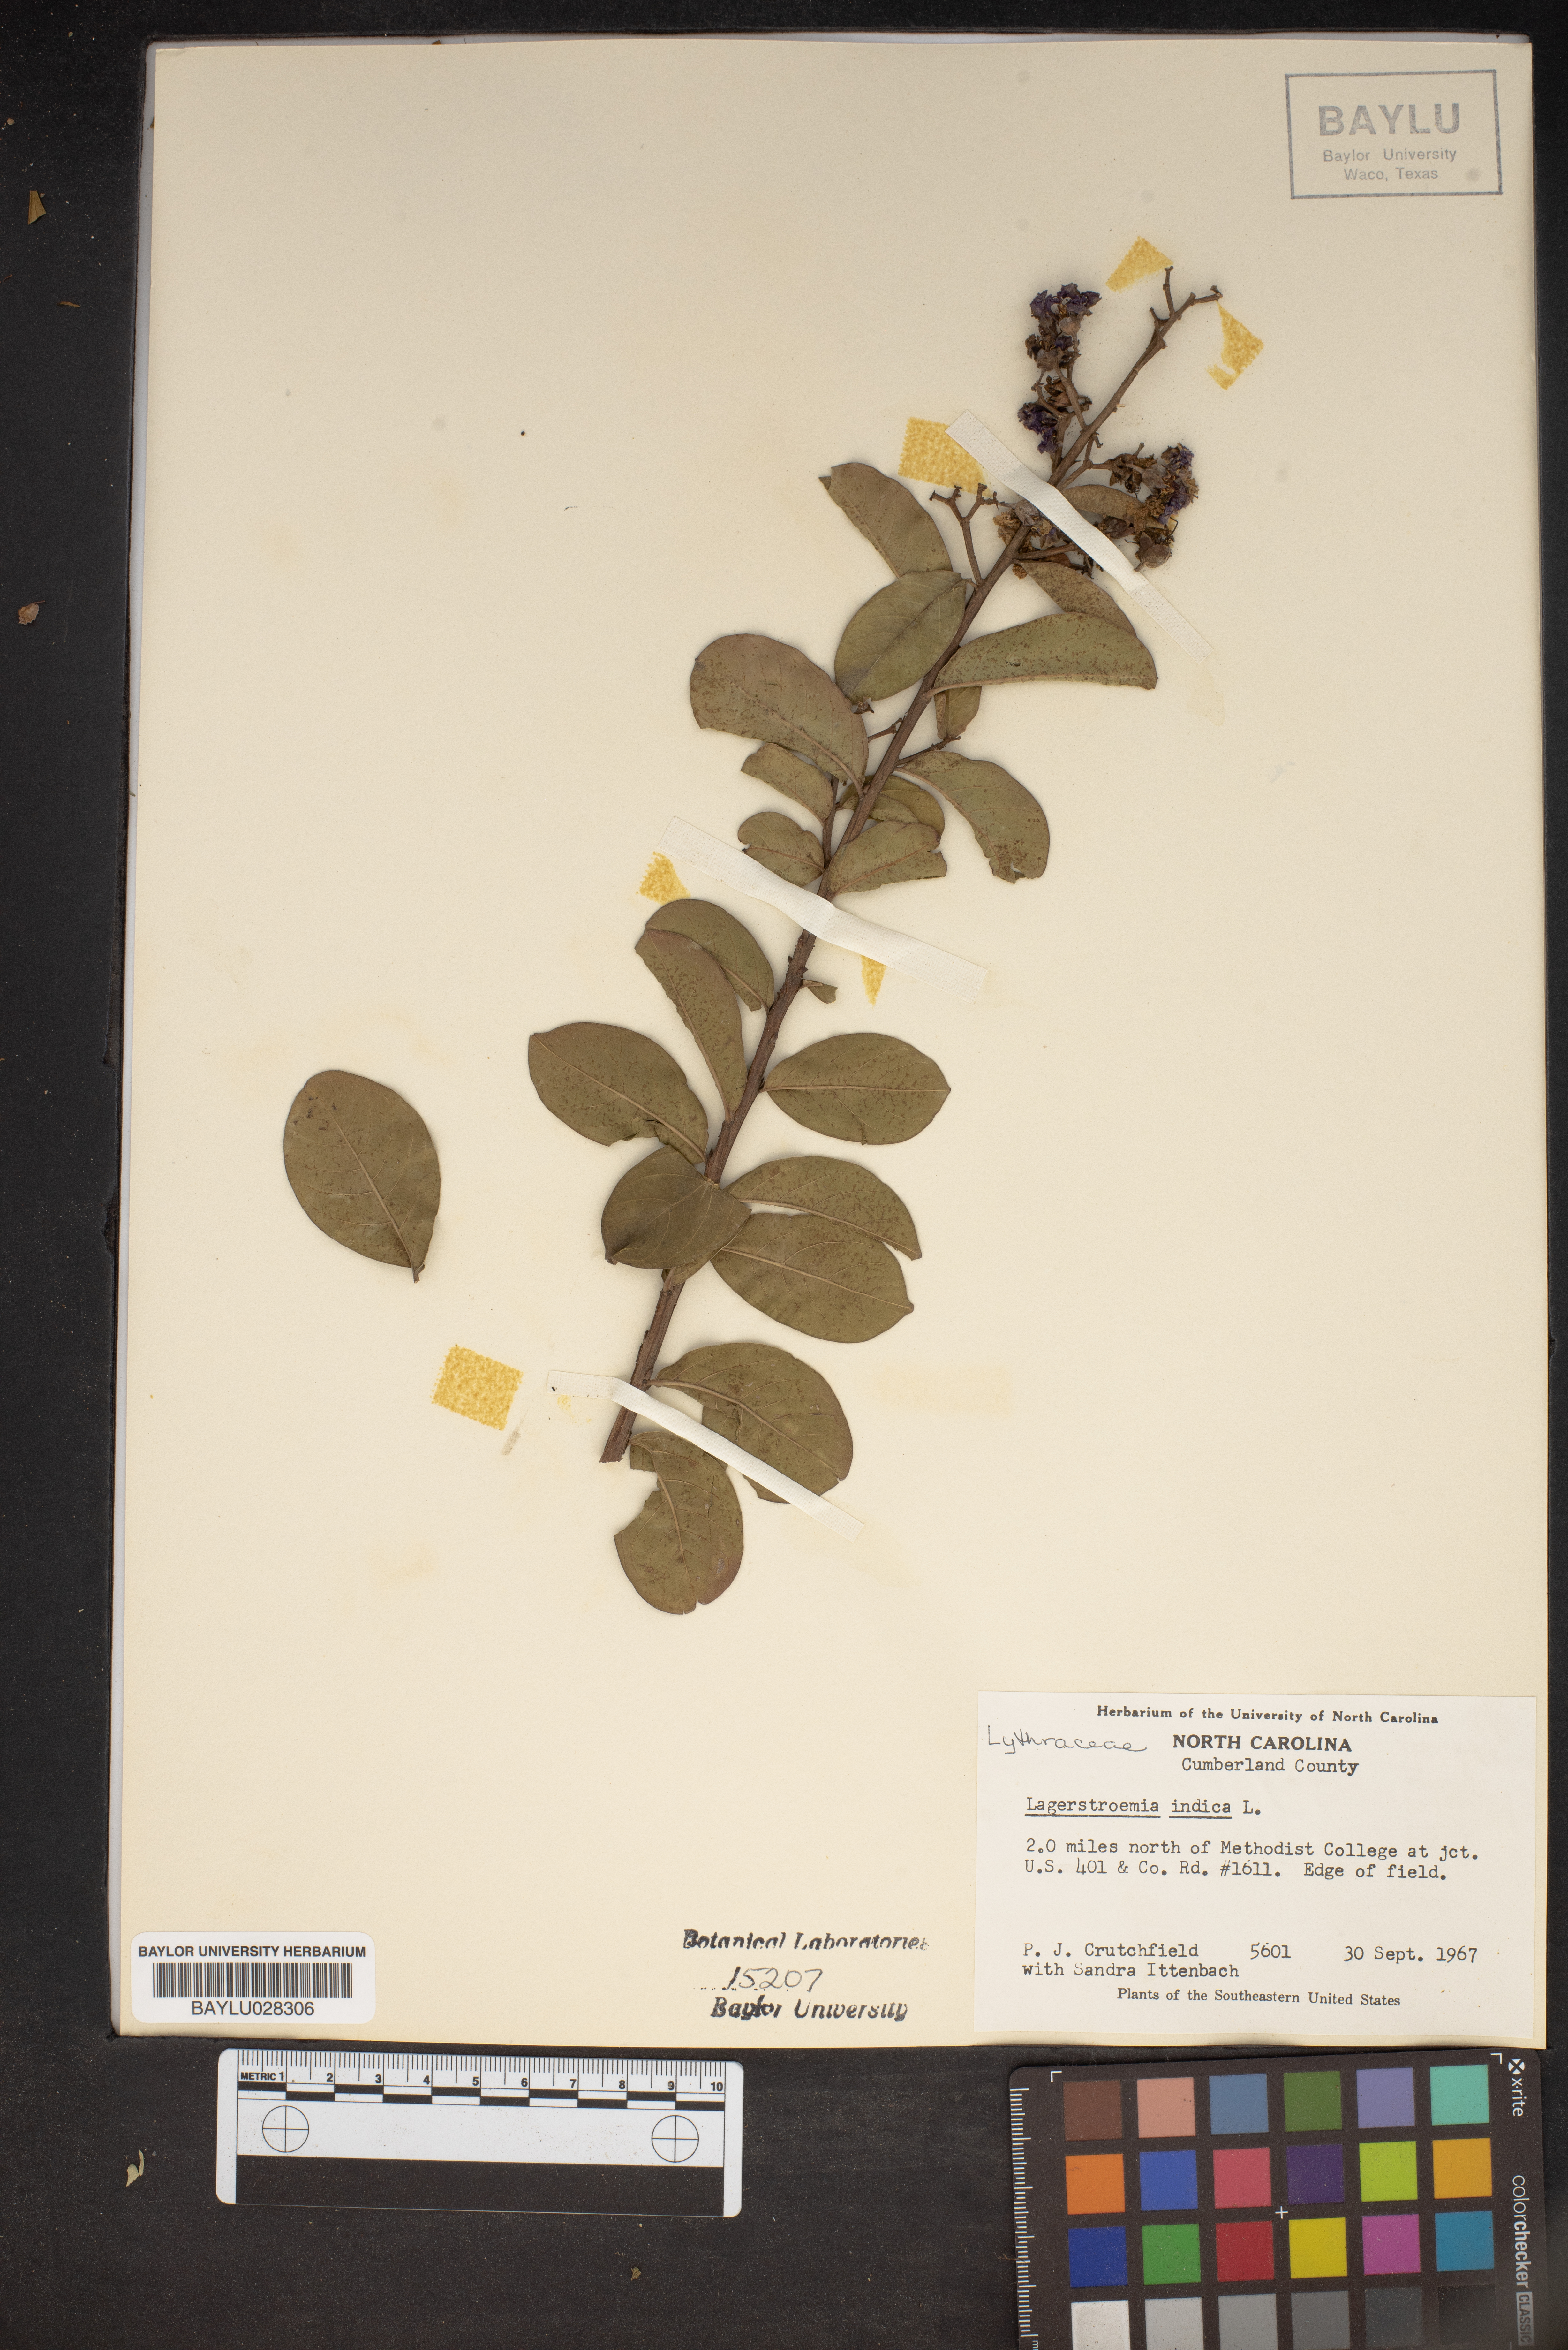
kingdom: Plantae
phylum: Tracheophyta
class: Magnoliopsida
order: Myrtales
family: Lythraceae
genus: Lagerstroemia
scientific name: Lagerstroemia indica
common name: Crape-myrtle
